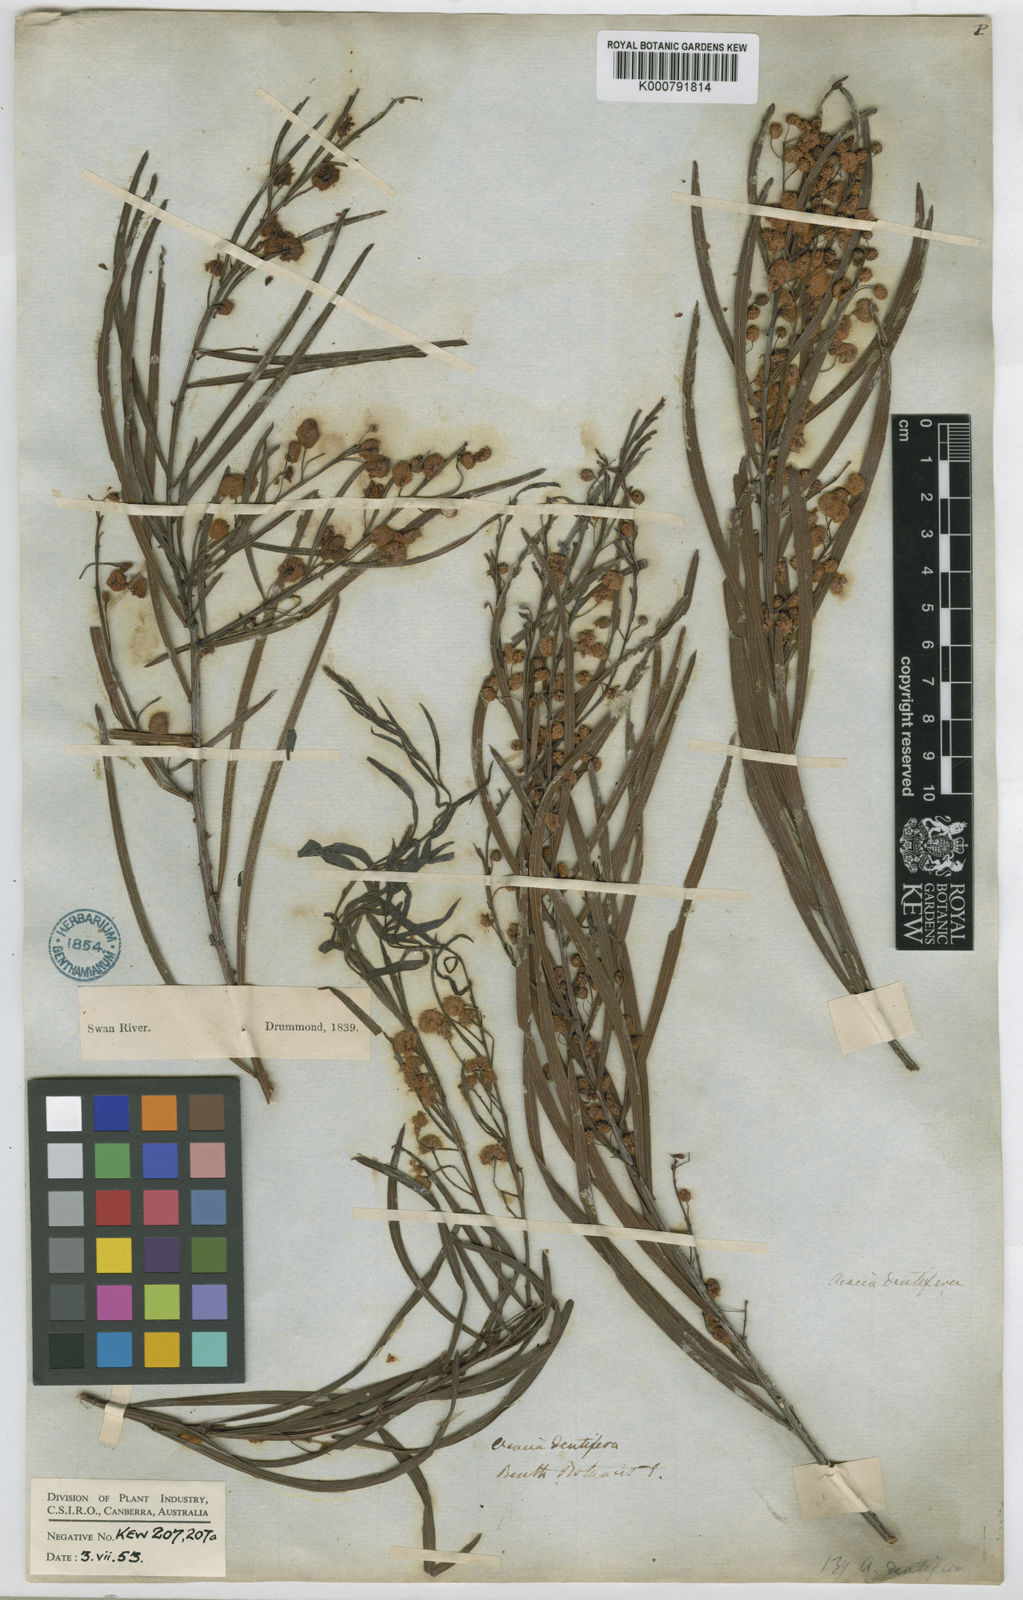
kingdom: Plantae
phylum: Tracheophyta
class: Magnoliopsida
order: Fabales
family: Fabaceae
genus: Acacia
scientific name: Acacia dentifera
